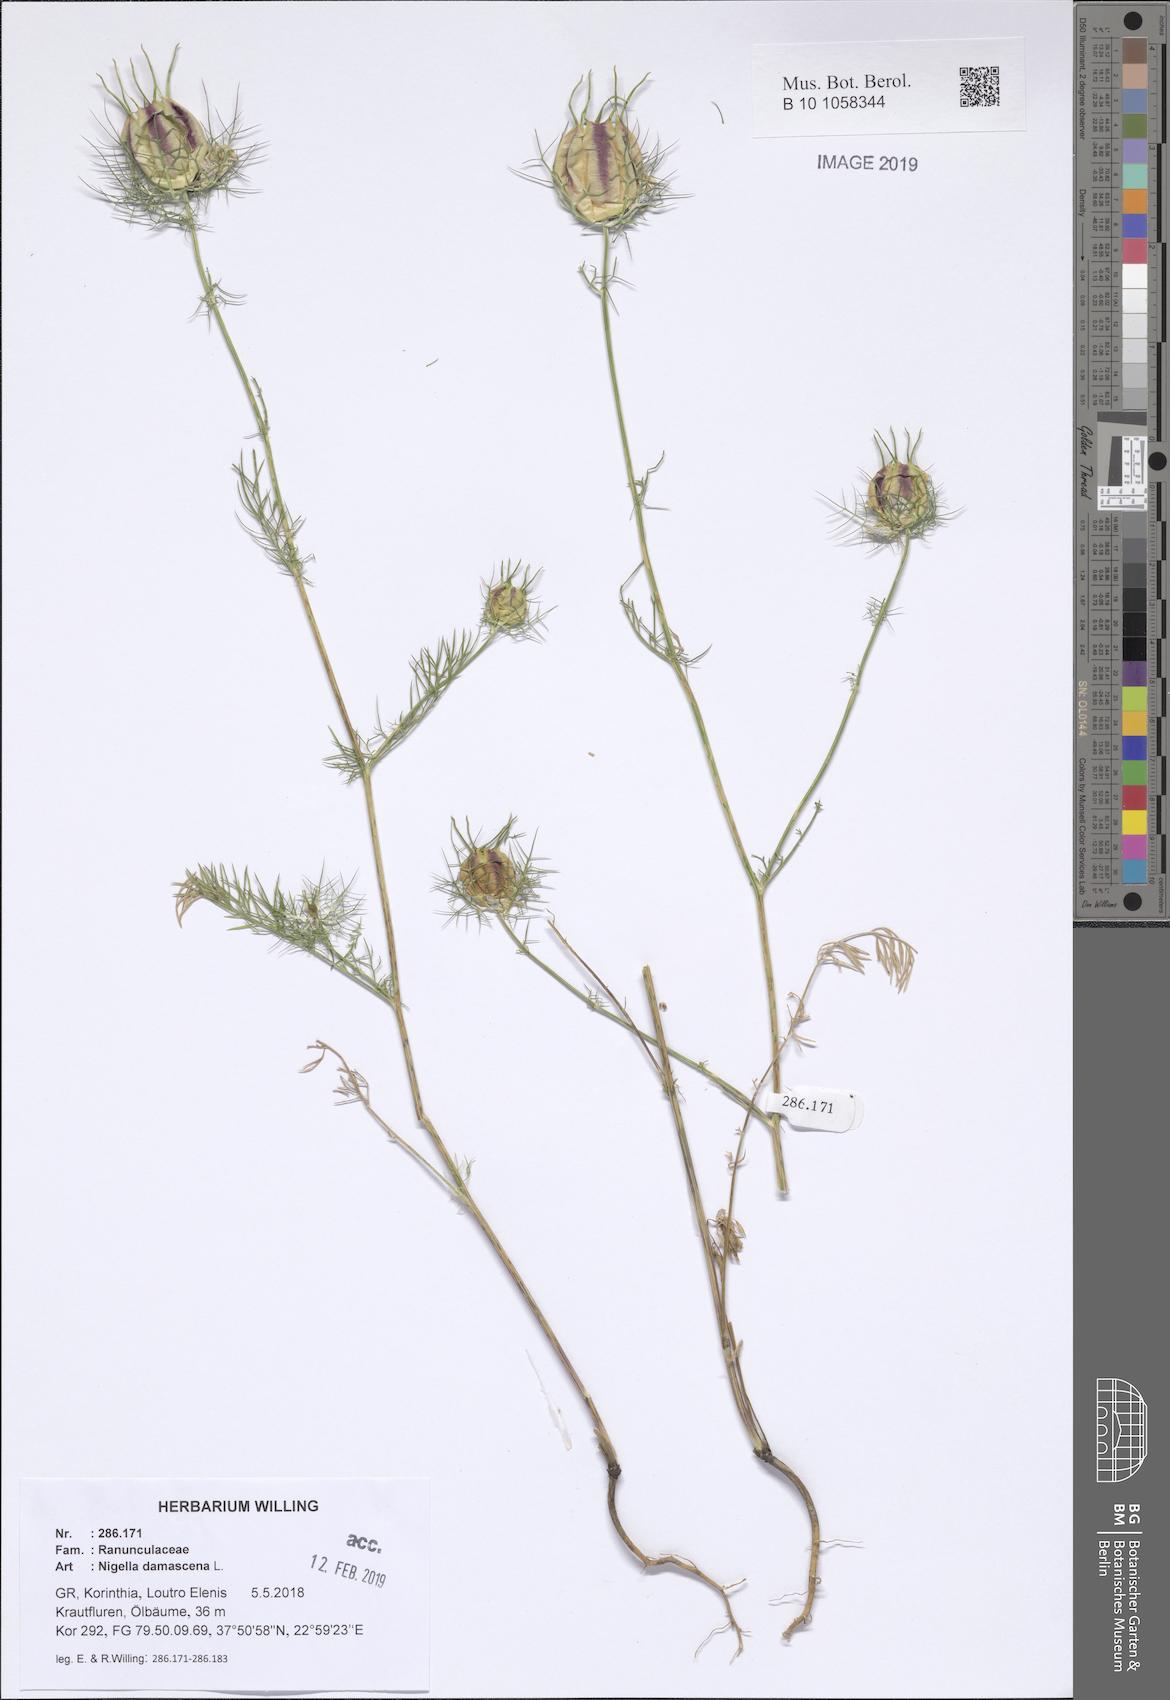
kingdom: Plantae
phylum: Tracheophyta
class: Magnoliopsida
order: Ranunculales
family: Ranunculaceae
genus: Nigella
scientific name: Nigella damascena
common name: Love-in-a-mist
